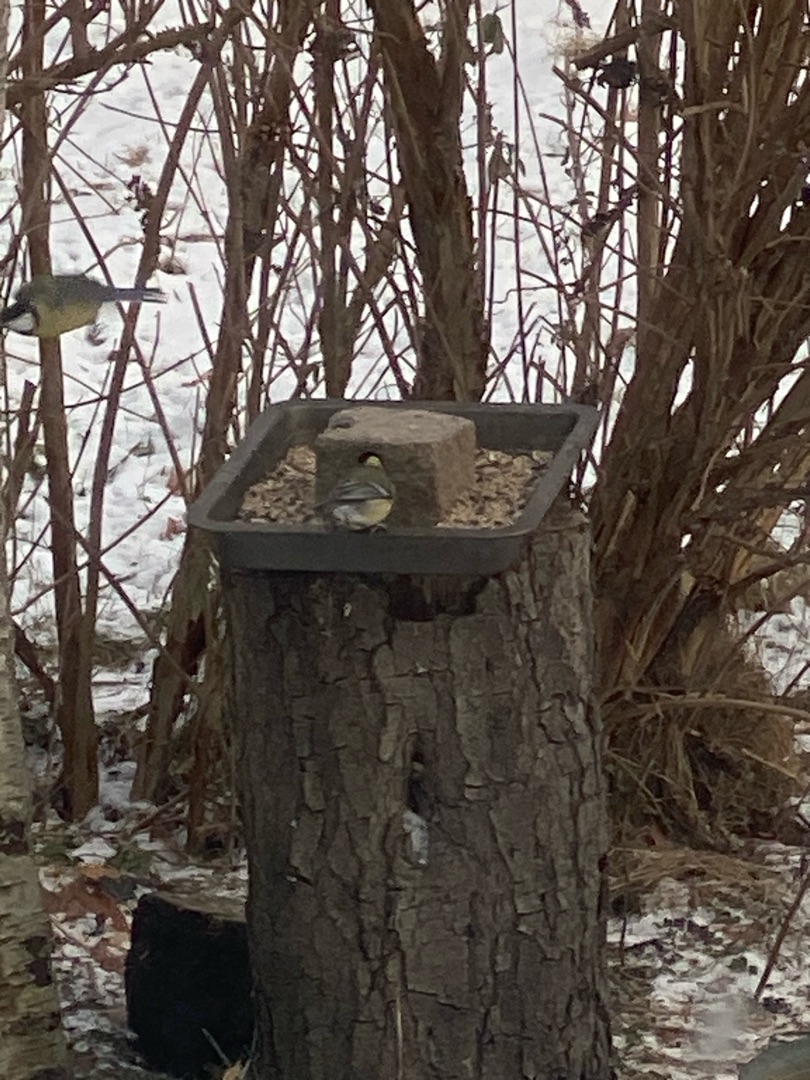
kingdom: Animalia
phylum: Chordata
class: Aves
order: Passeriformes
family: Paridae
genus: Parus
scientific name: Parus major
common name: Musvit
